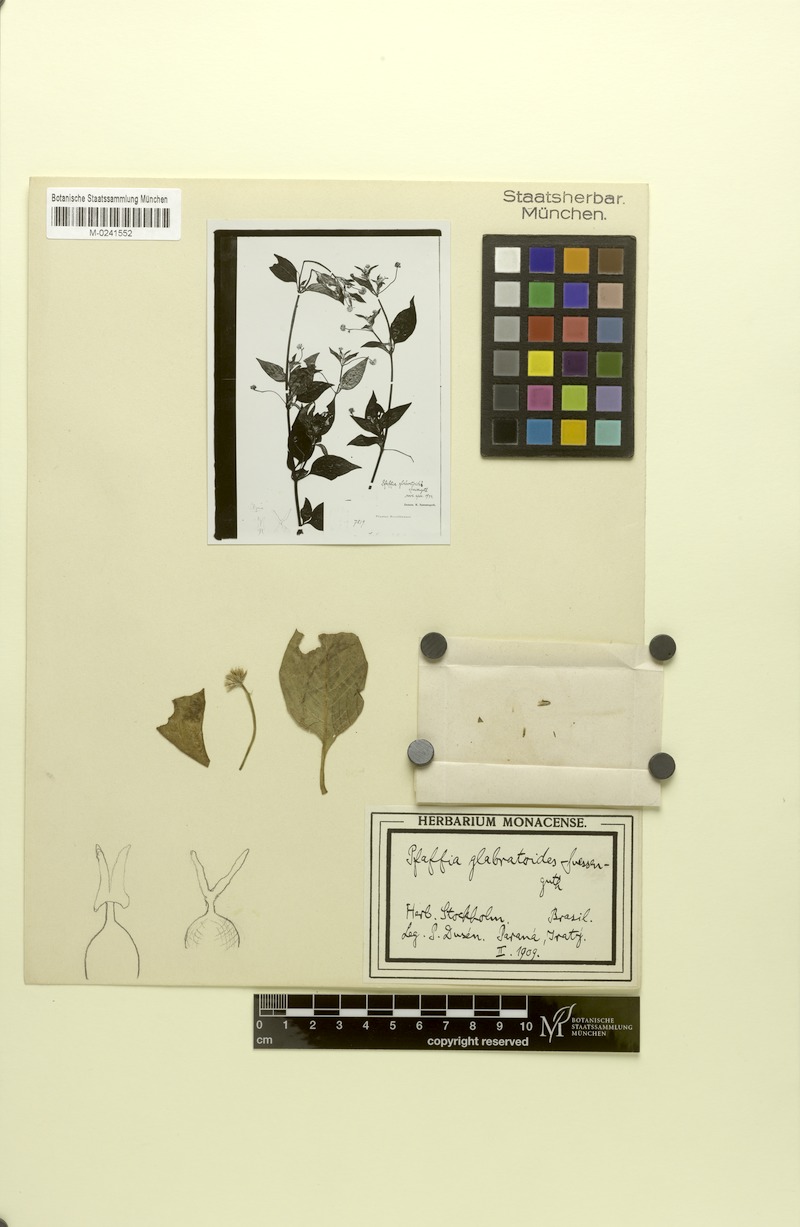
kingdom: Plantae
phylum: Tracheophyta
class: Magnoliopsida
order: Caryophyllales
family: Amaranthaceae
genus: Quaternella
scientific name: Quaternella glabratoides
